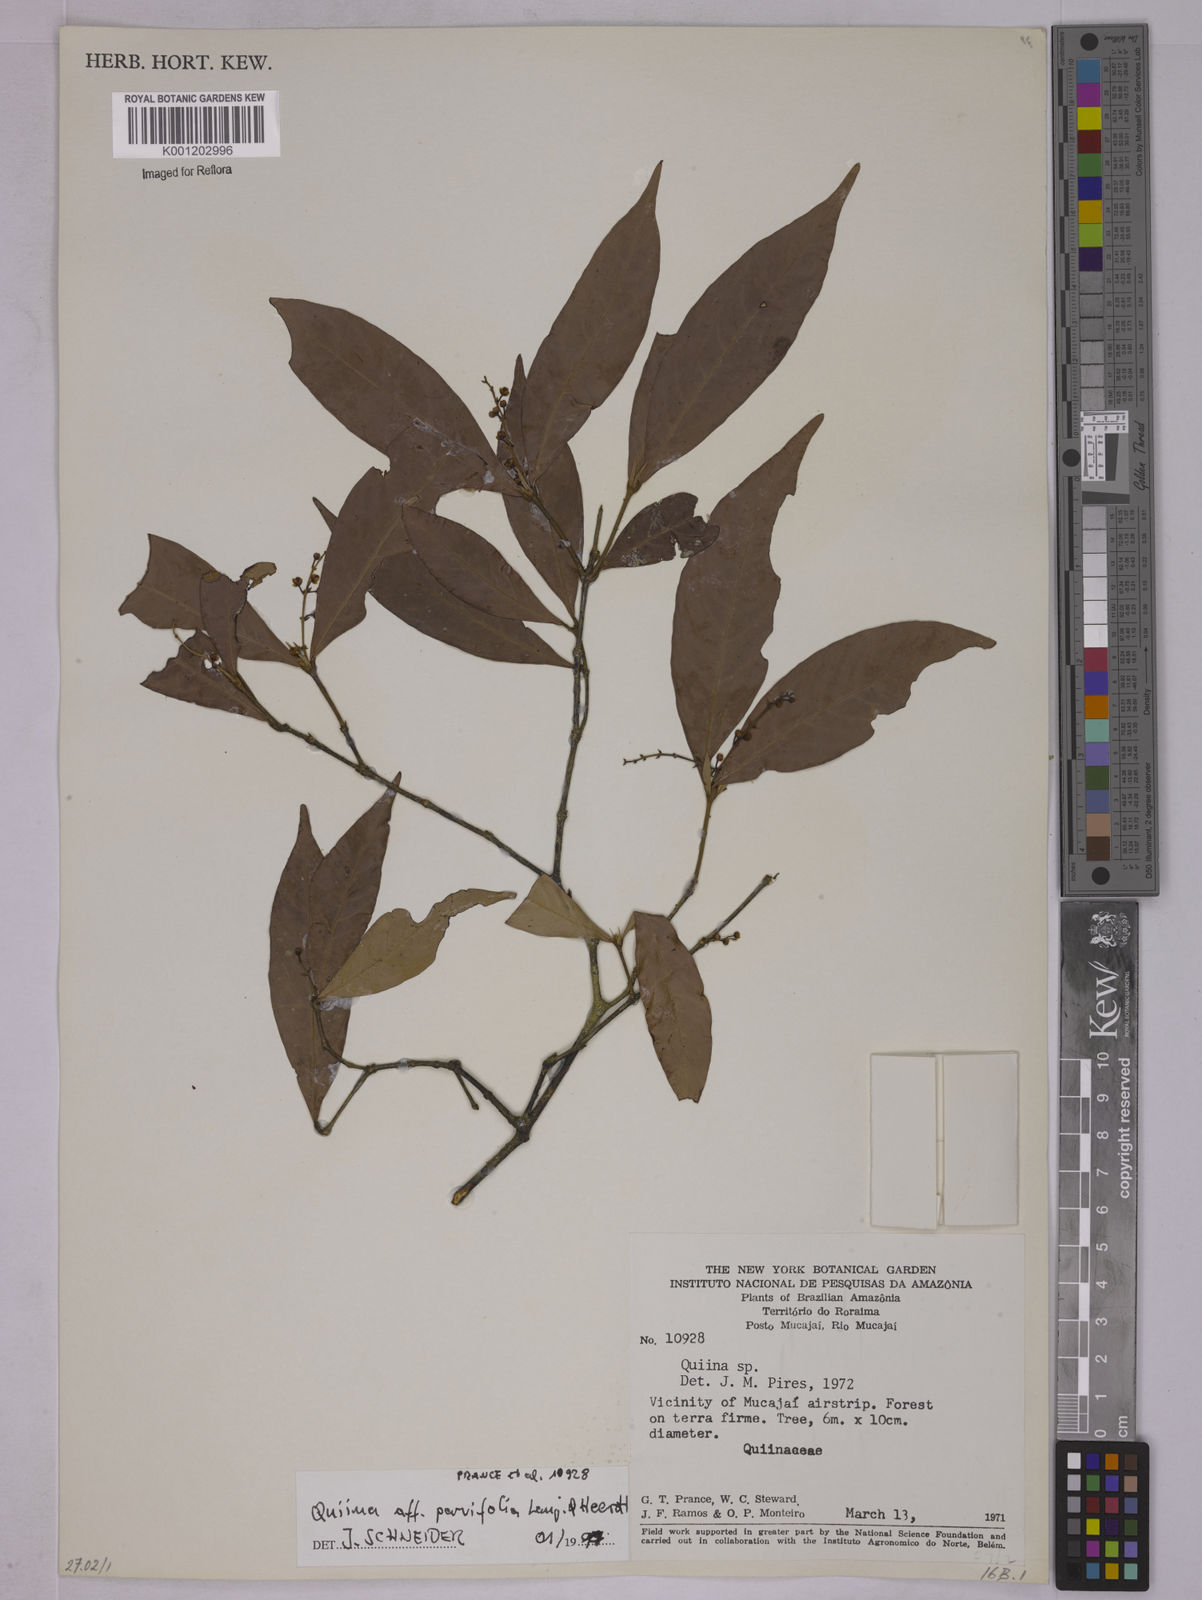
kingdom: Plantae
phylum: Tracheophyta
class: Magnoliopsida
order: Malpighiales
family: Quiinaceae
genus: Quiina
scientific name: Quiina parvifolia
